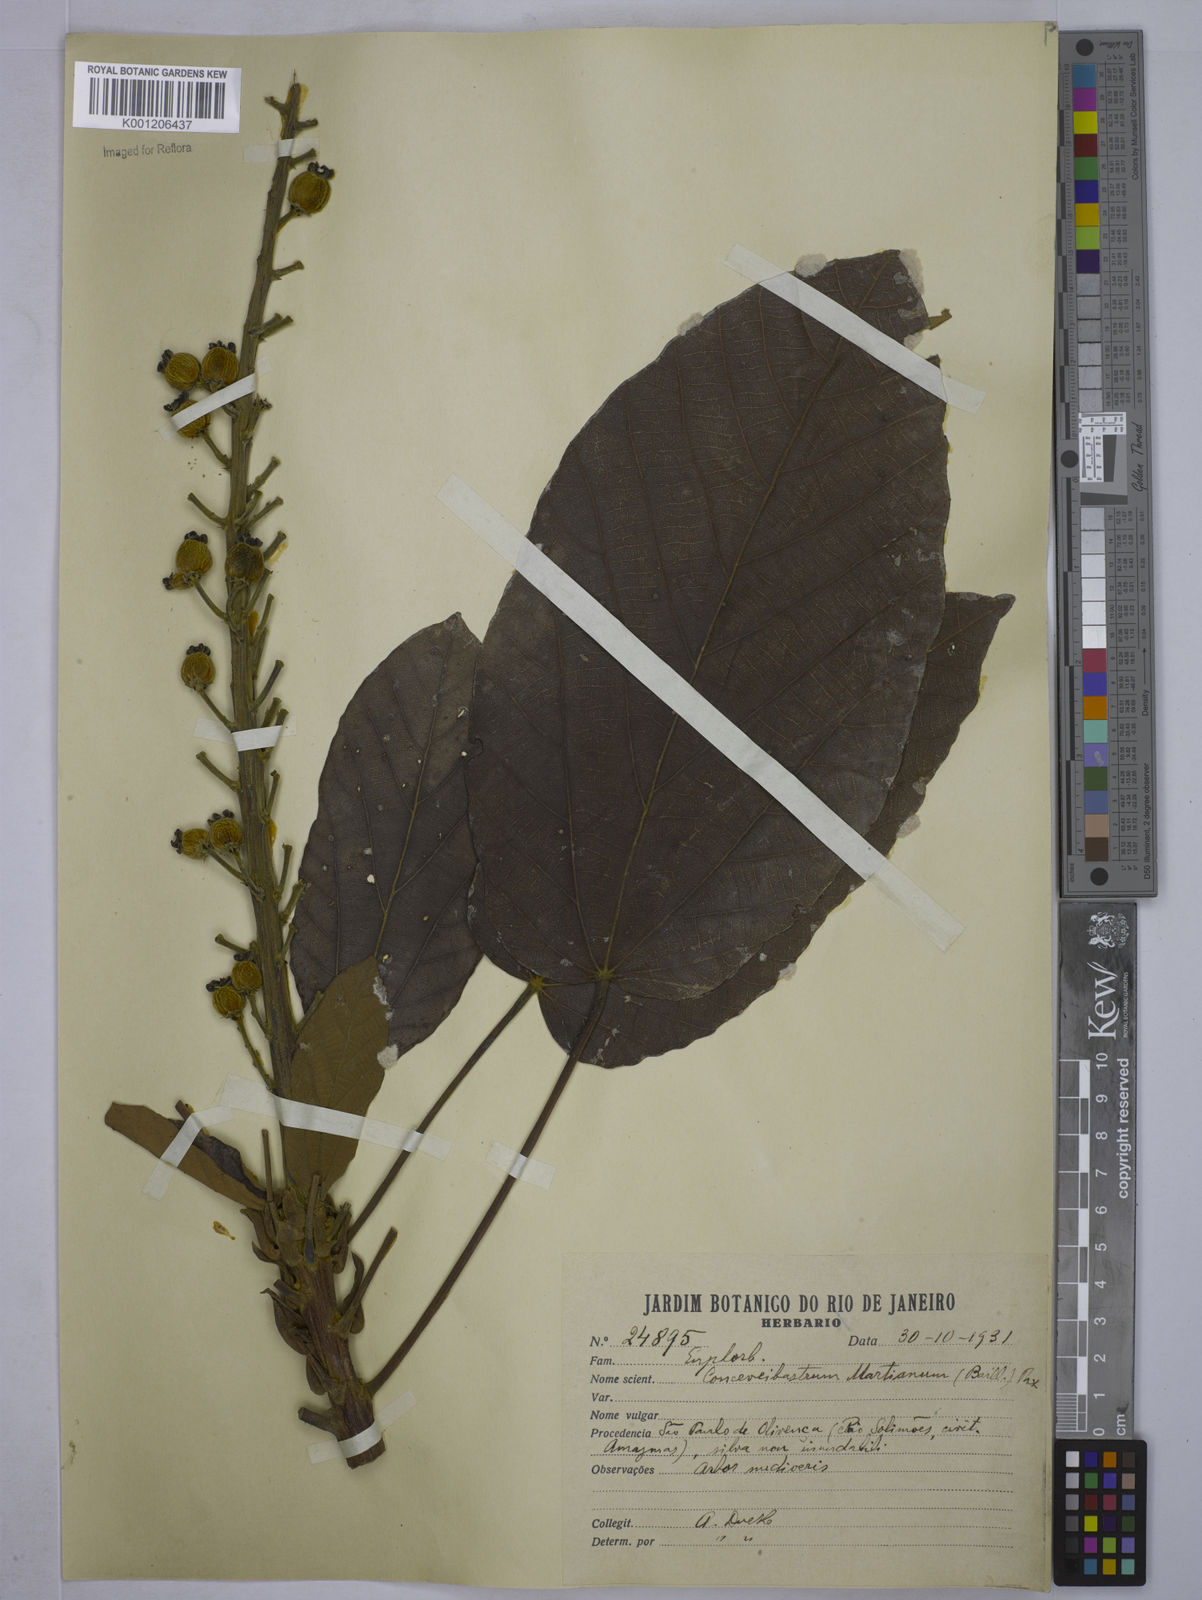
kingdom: Plantae
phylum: Tracheophyta
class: Magnoliopsida
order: Malpighiales
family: Euphorbiaceae
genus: Conceveiba
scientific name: Conceveiba martiana
